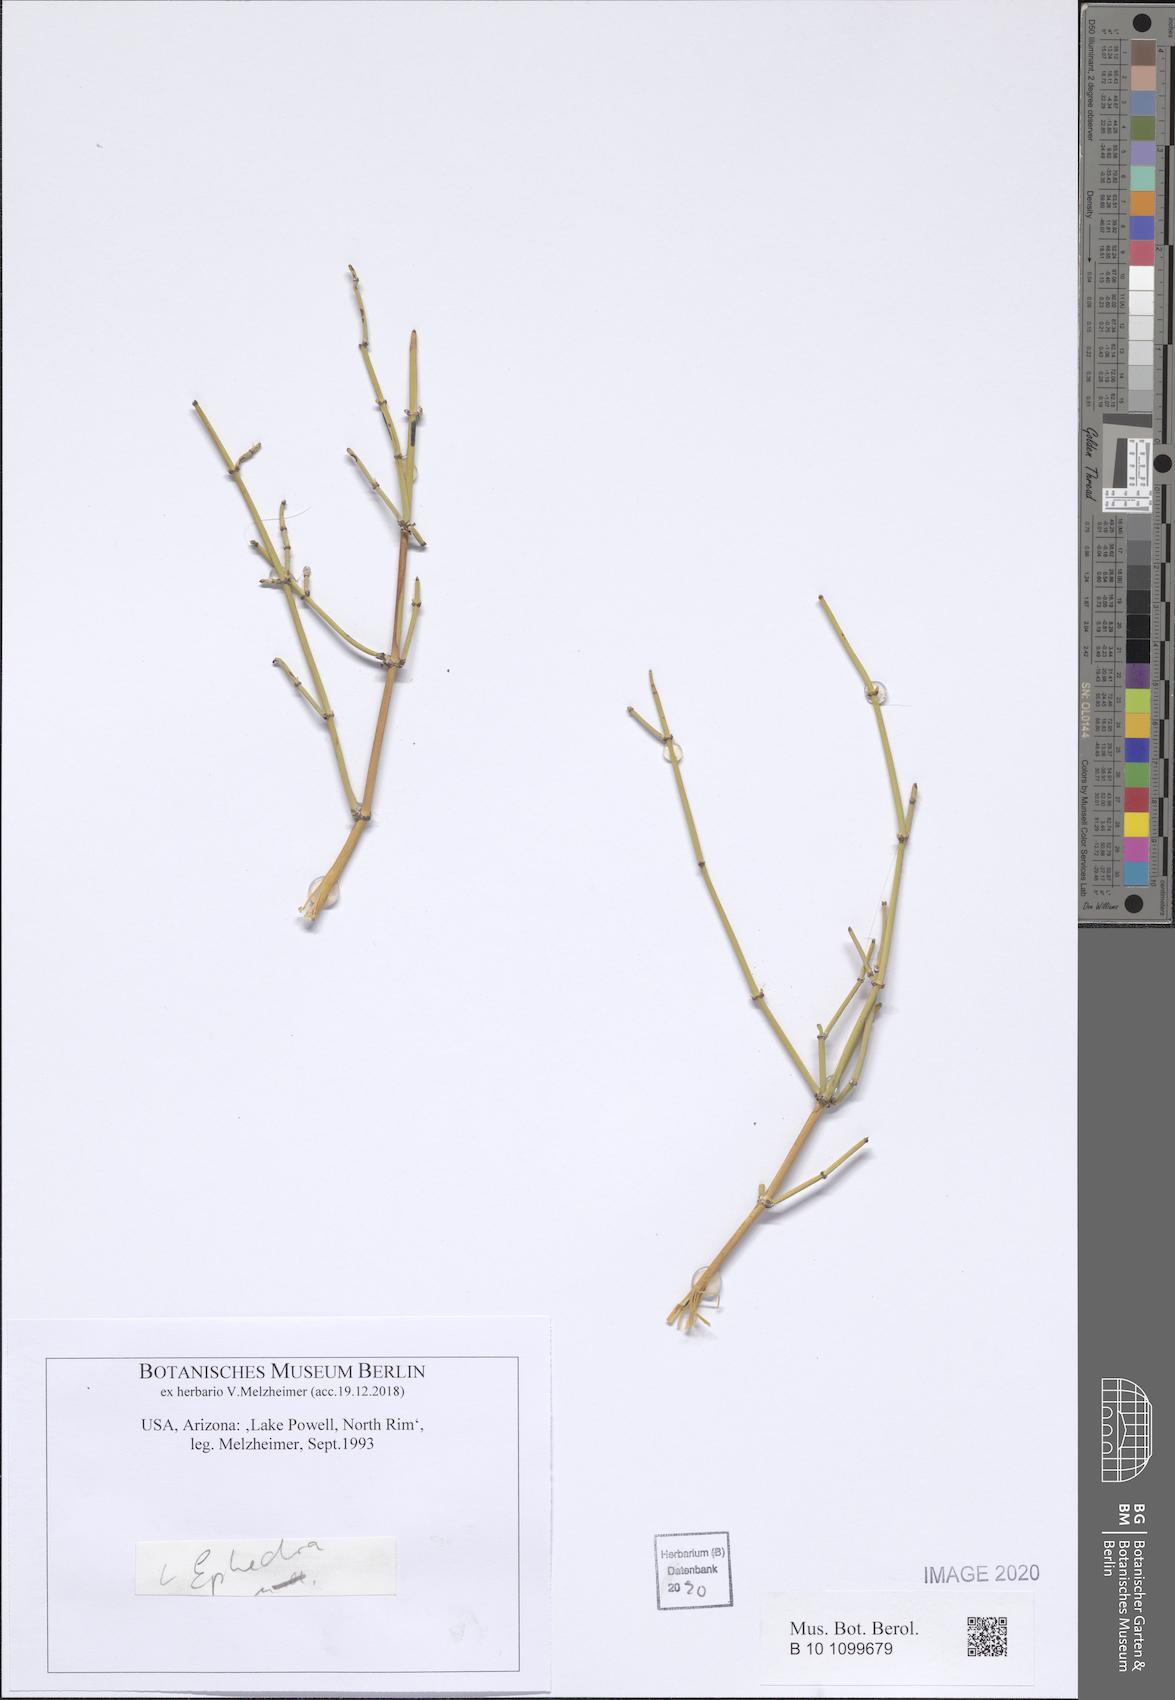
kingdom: Plantae
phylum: Tracheophyta
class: Gnetopsida
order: Ephedrales
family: Ephedraceae
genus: Ephedra
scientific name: Ephedra
